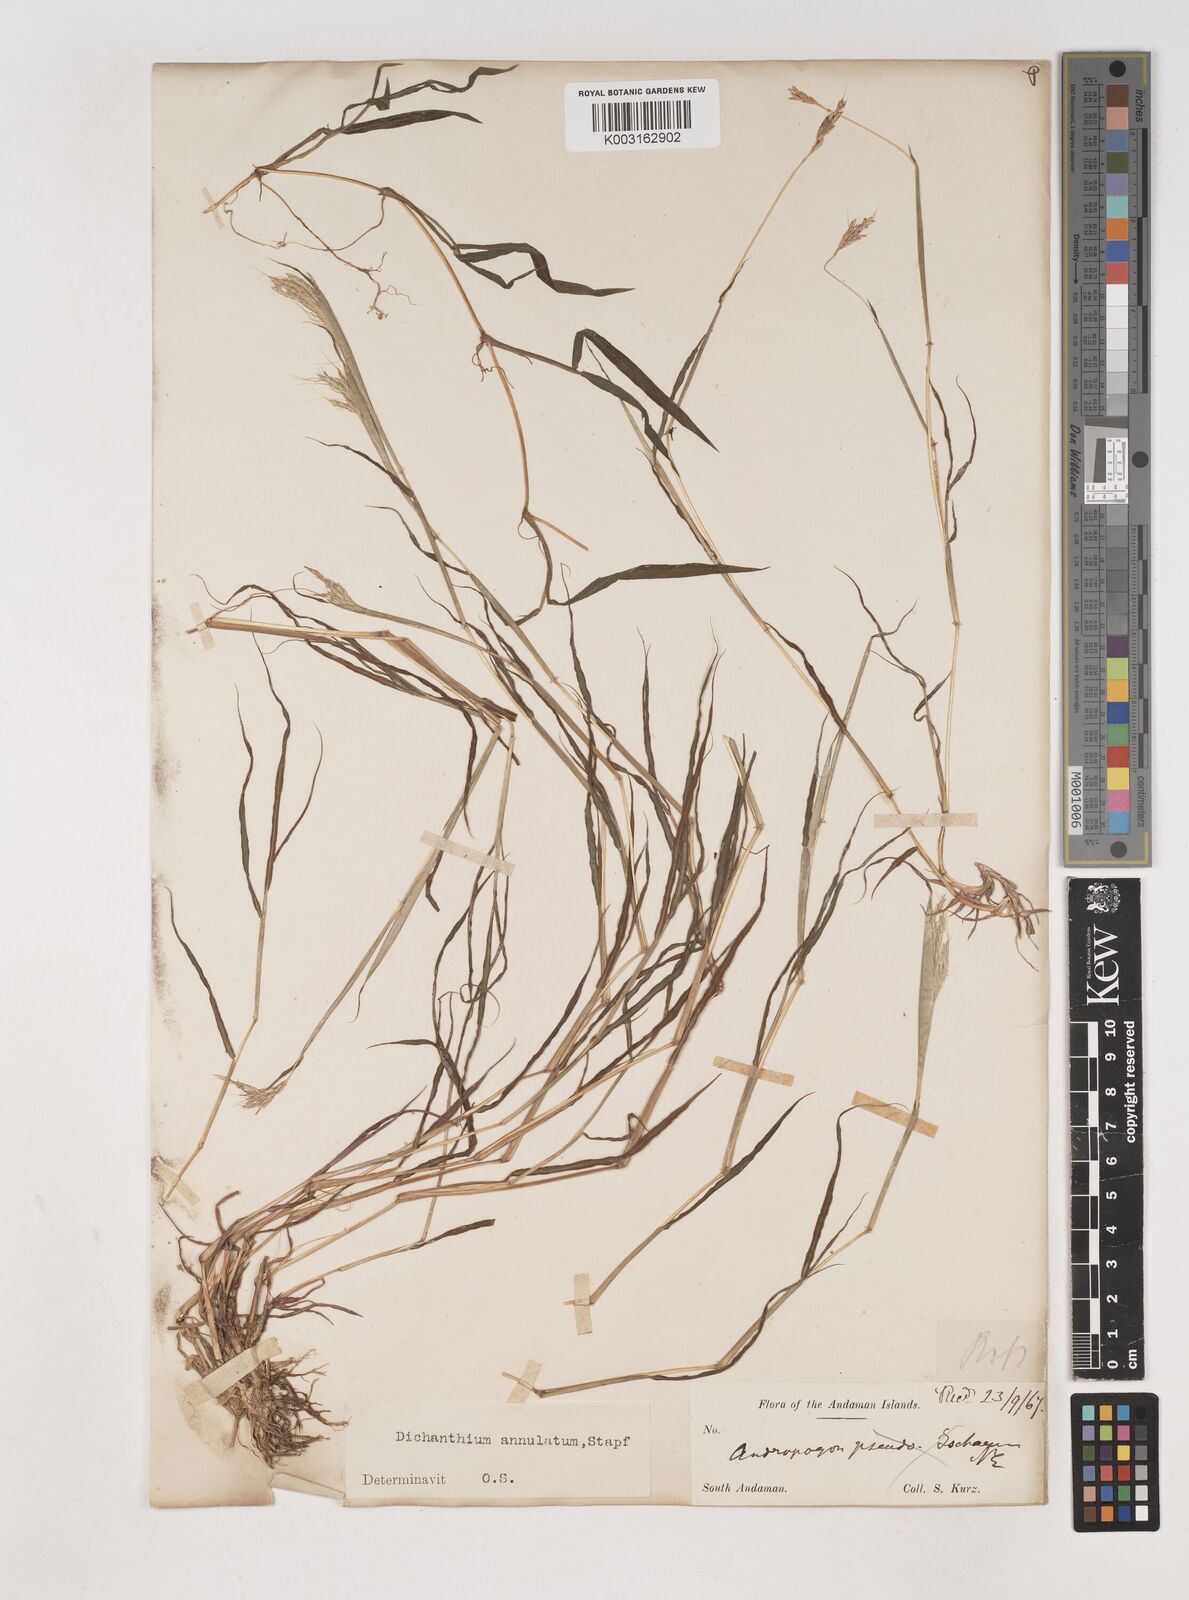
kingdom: Plantae
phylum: Tracheophyta
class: Liliopsida
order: Poales
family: Poaceae
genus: Dichanthium
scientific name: Dichanthium annulatum
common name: Kleberg's bluestem
